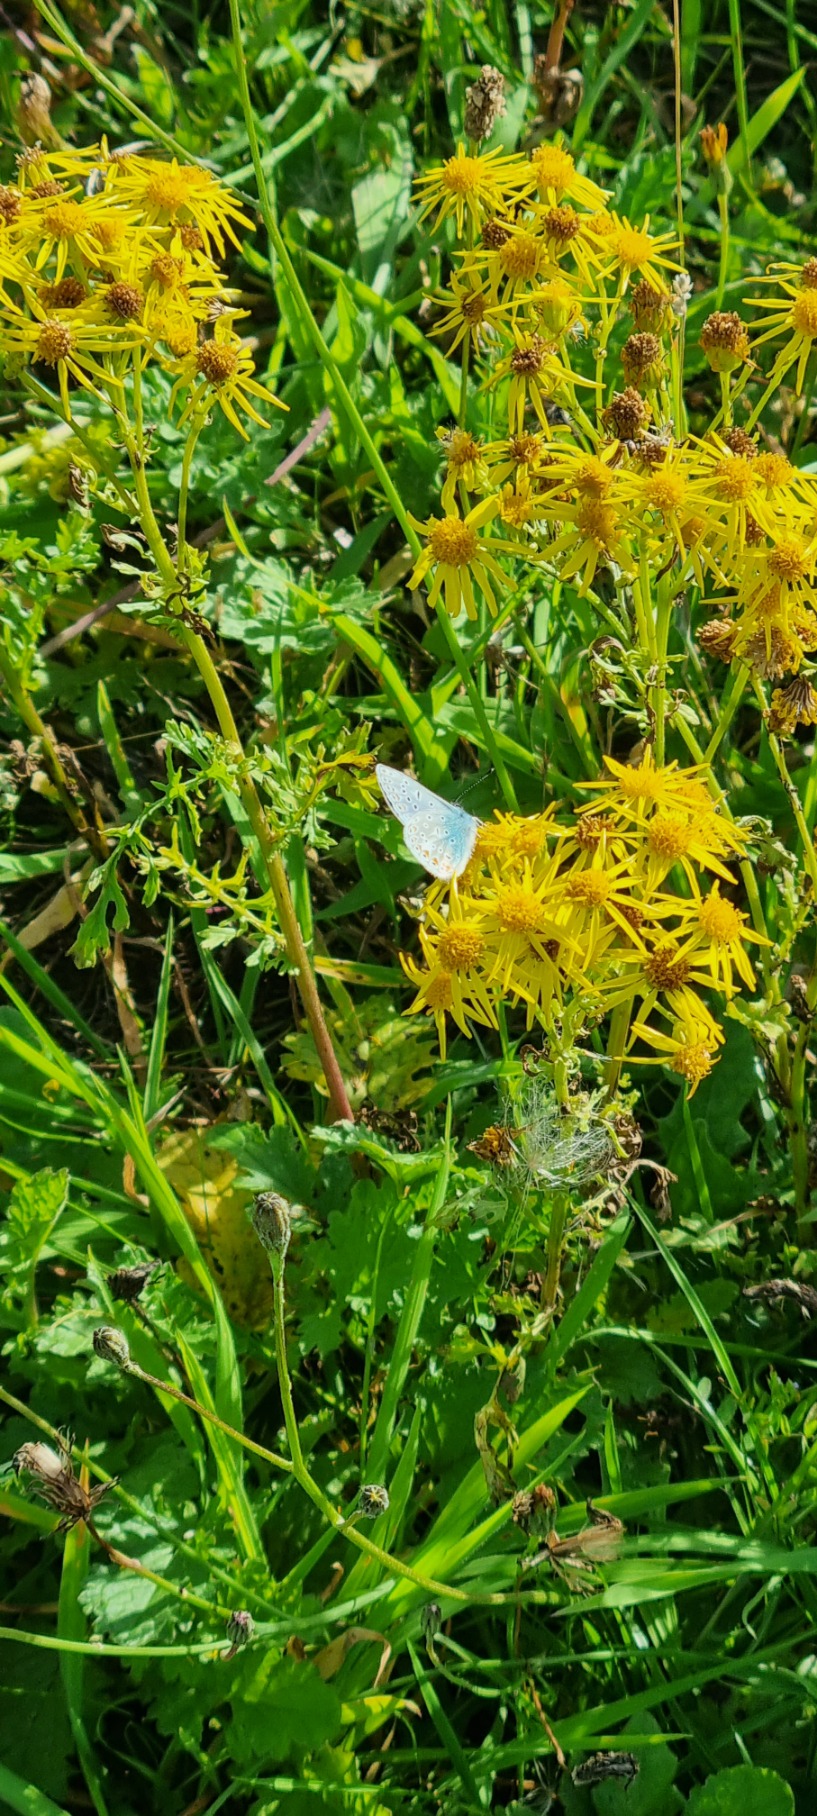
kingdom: Animalia
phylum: Arthropoda
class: Insecta
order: Lepidoptera
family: Lycaenidae
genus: Polyommatus
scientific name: Polyommatus icarus
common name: Almindelig blåfugl
